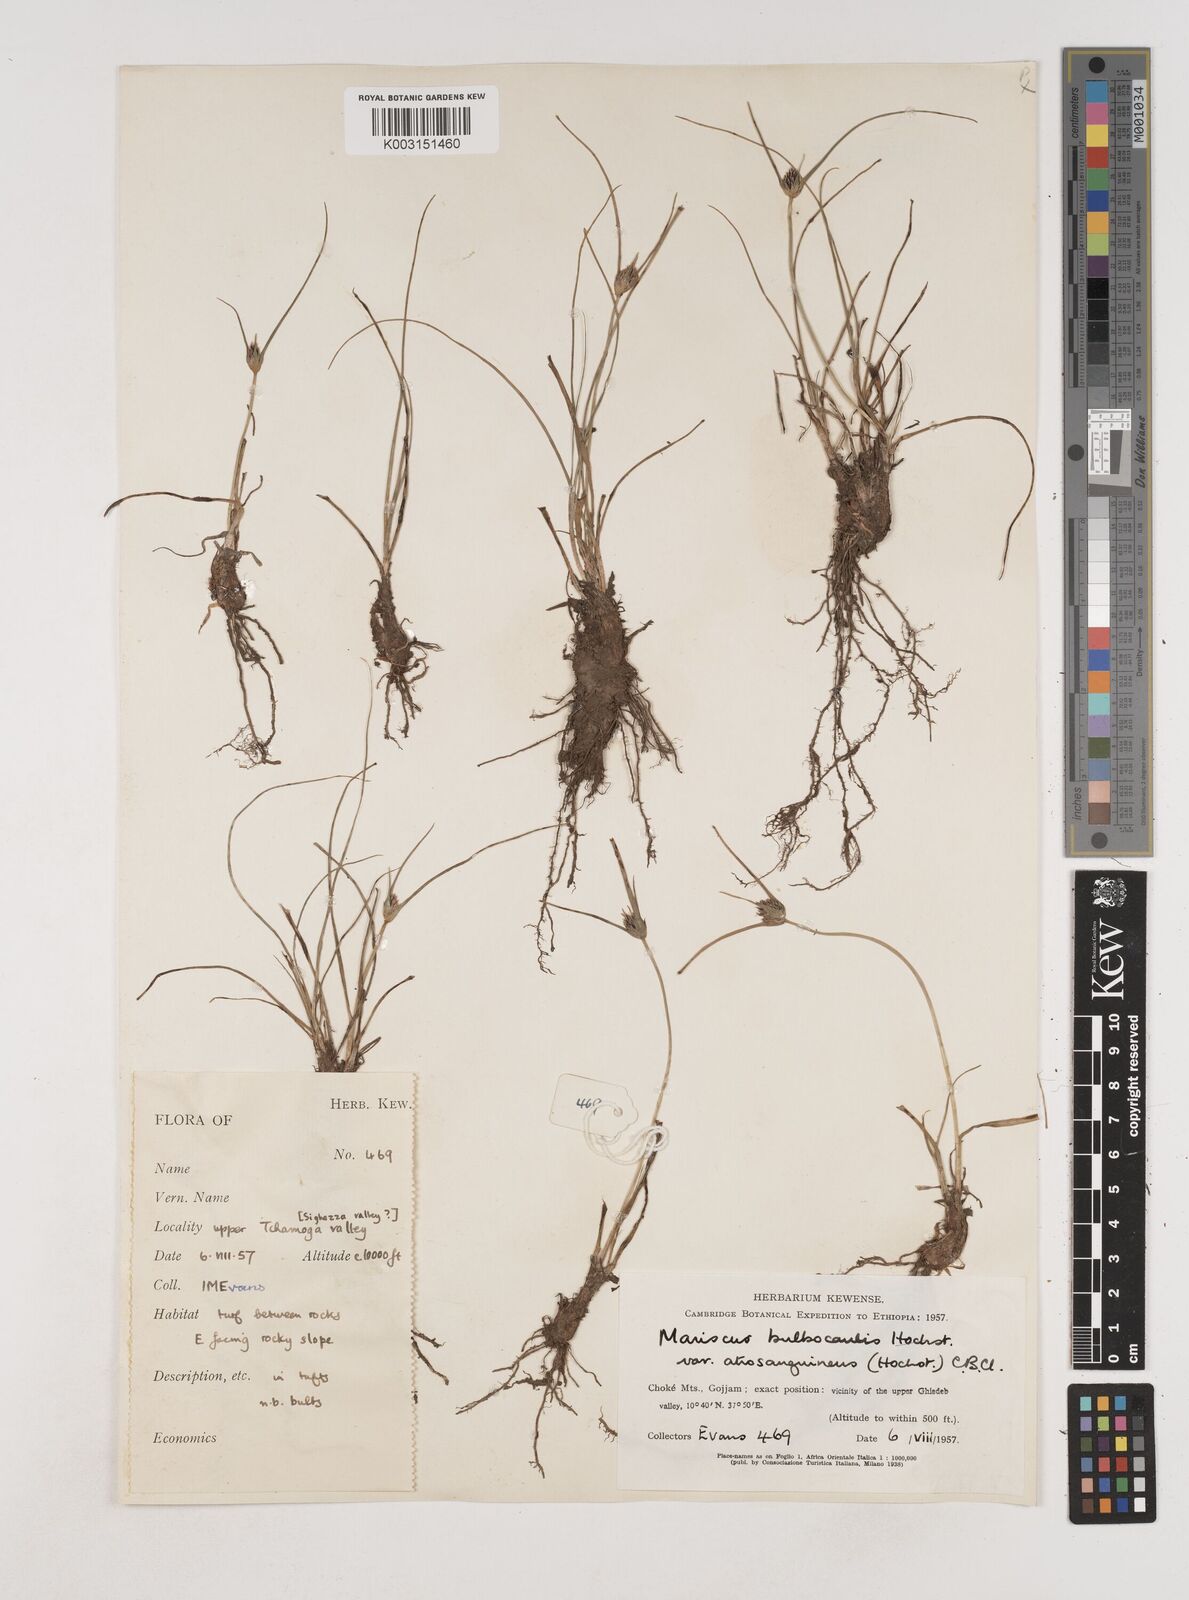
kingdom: Plantae
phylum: Tracheophyta
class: Liliopsida
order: Poales
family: Cyperaceae
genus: Cyperus
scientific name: Cyperus plateilema
